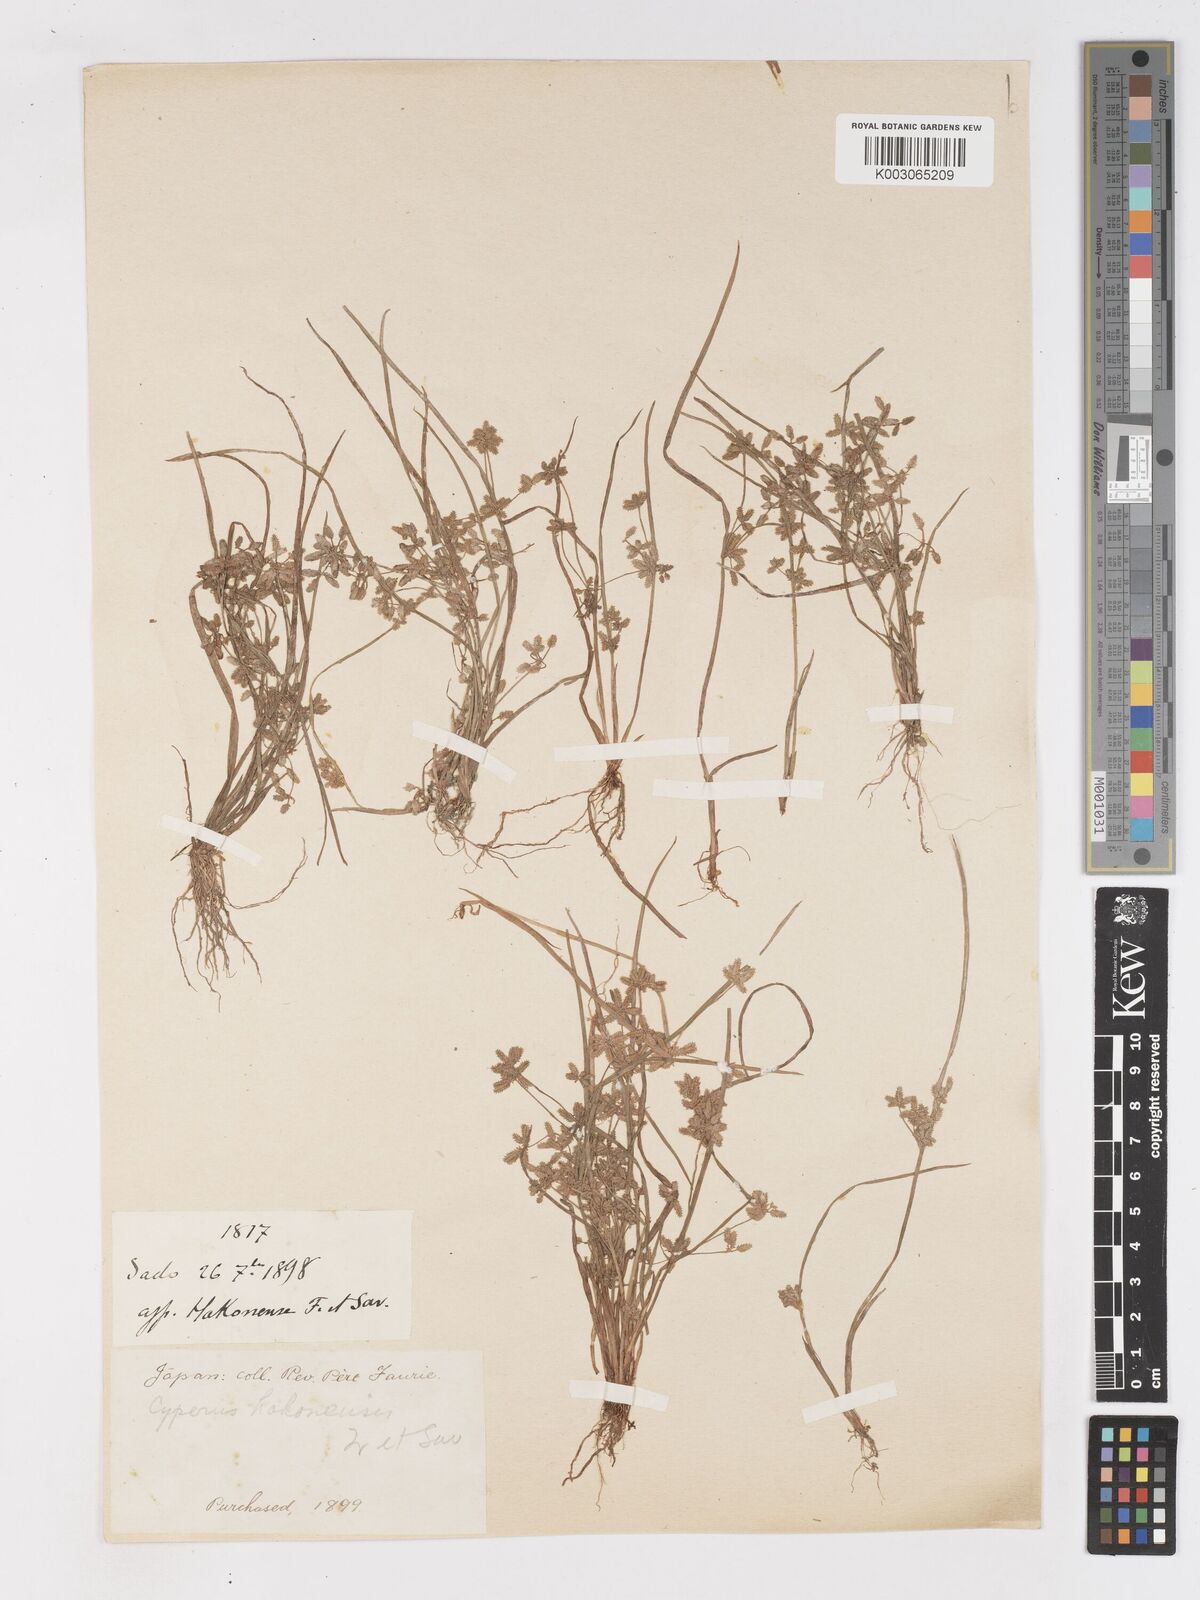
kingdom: Plantae
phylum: Tracheophyta
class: Liliopsida
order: Poales
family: Cyperaceae
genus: Cyperus
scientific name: Cyperus flaccidus
